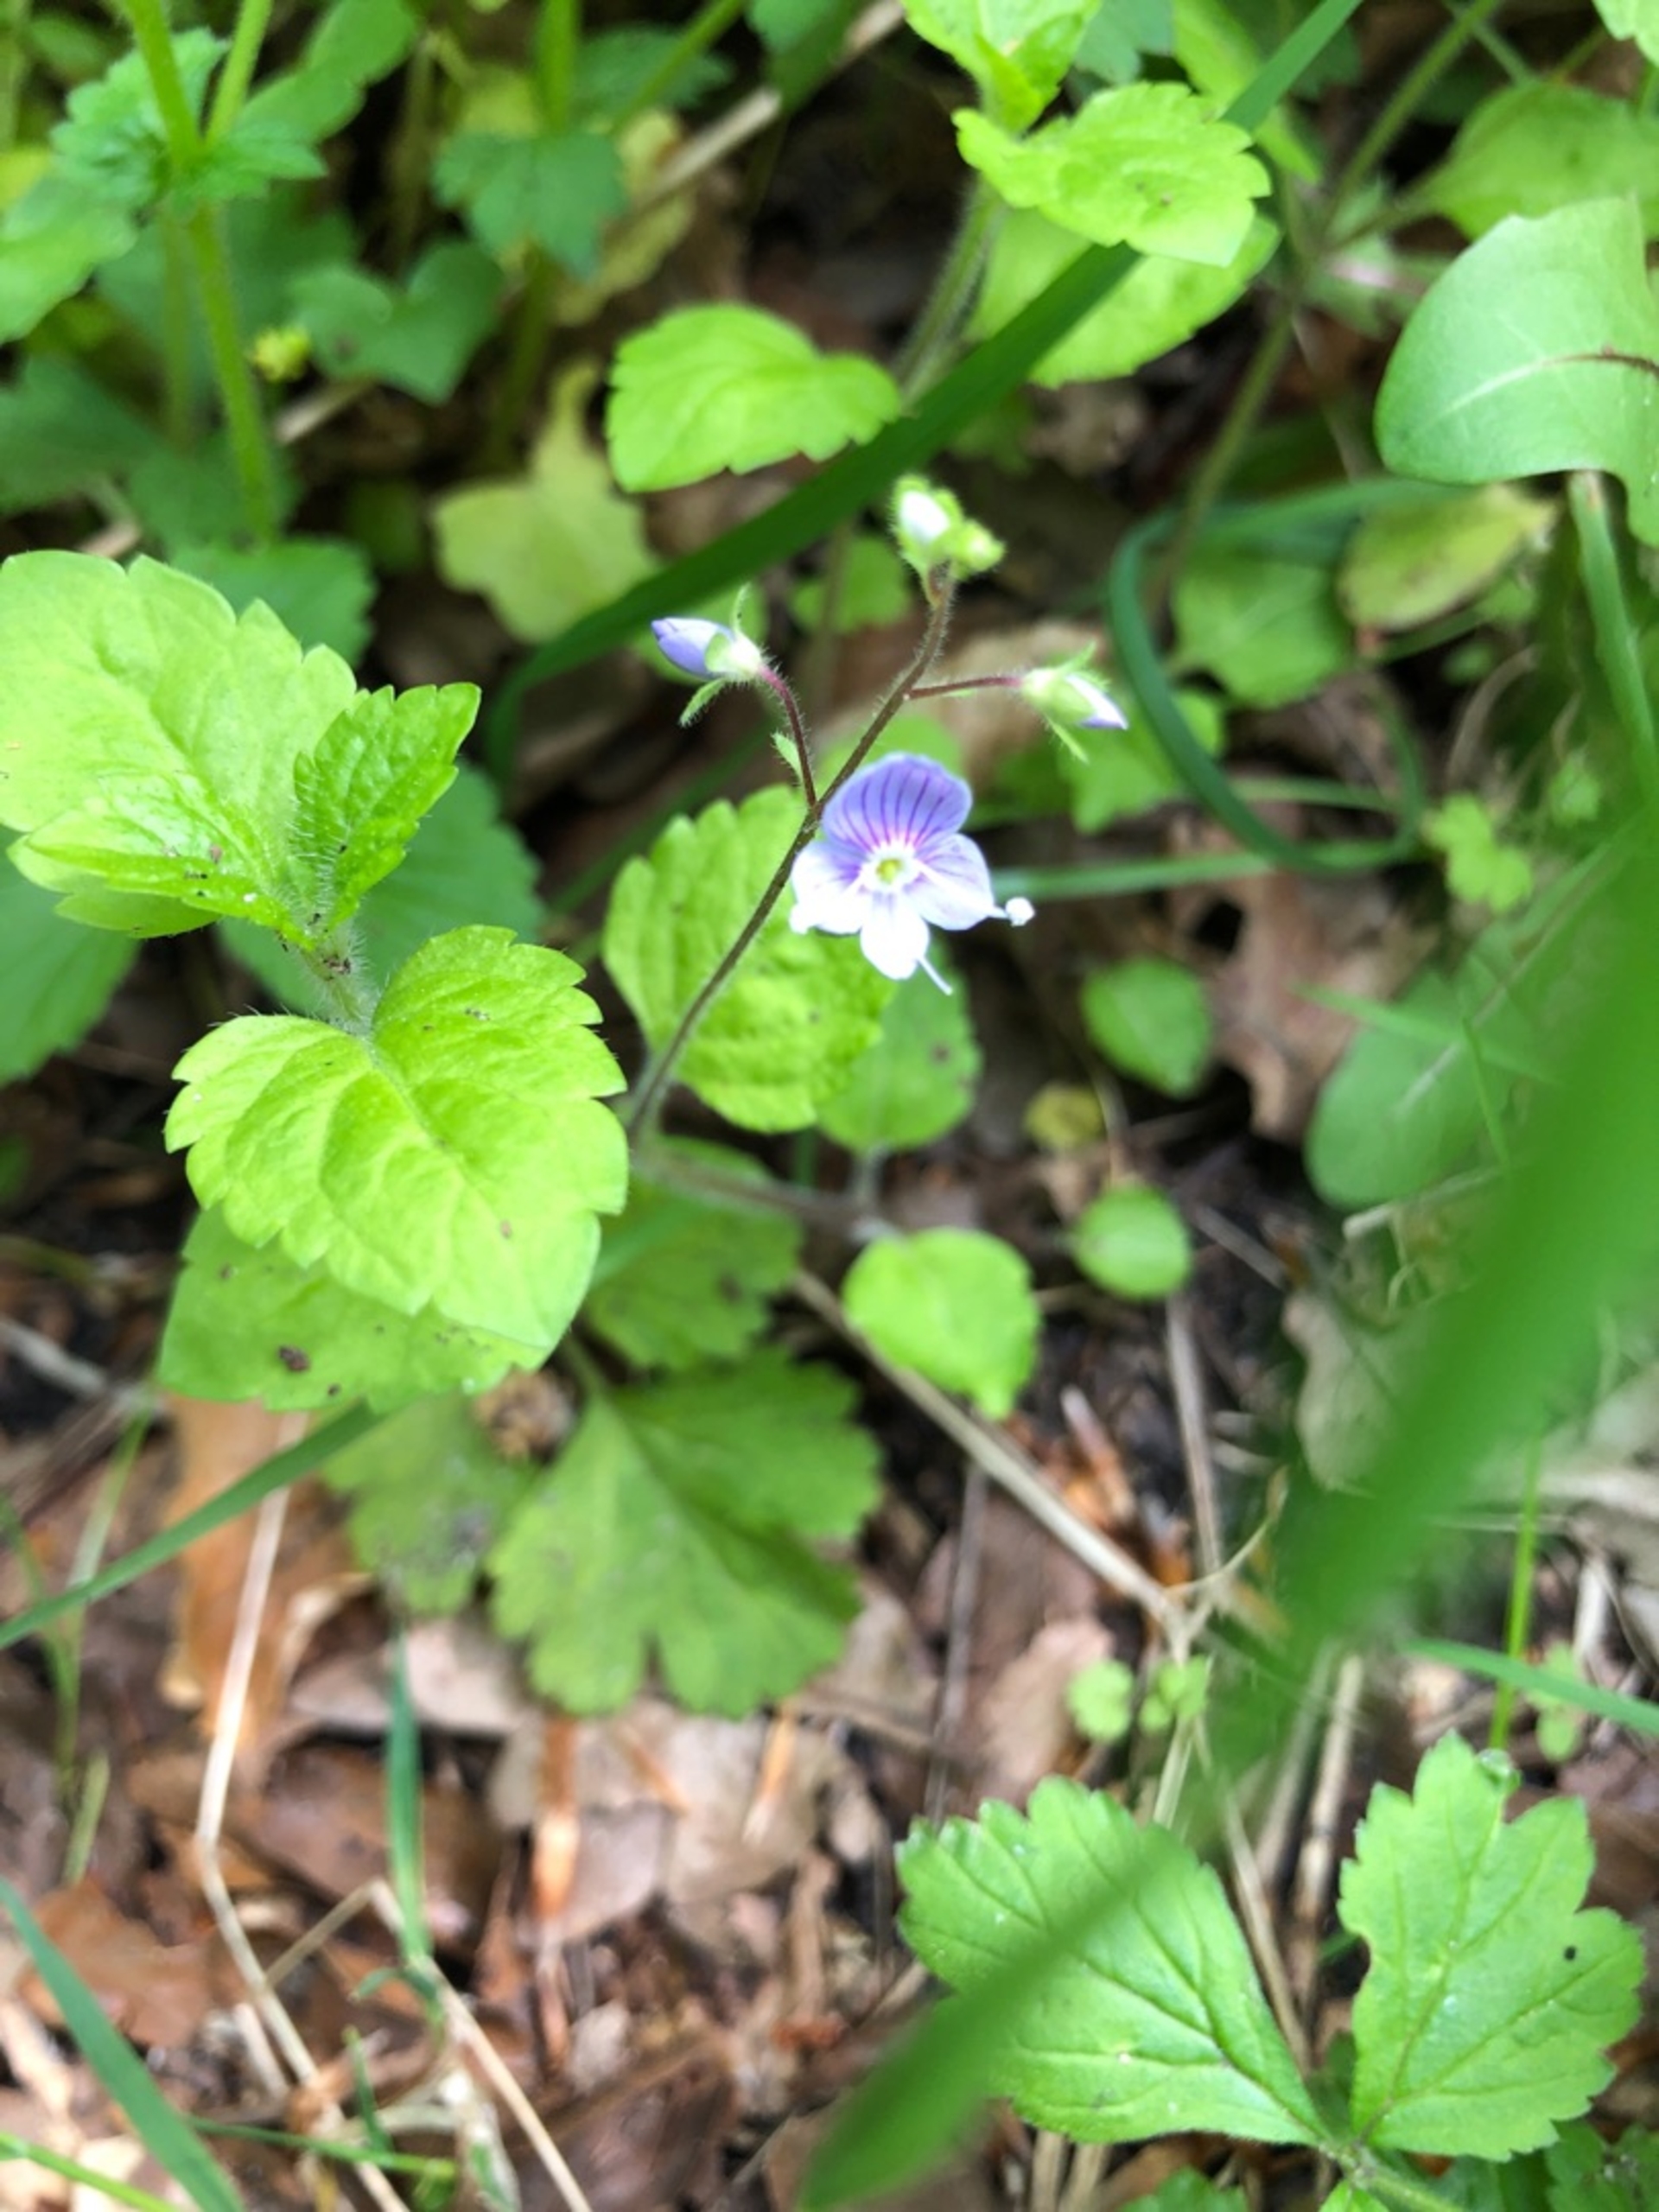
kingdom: Plantae
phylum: Tracheophyta
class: Magnoliopsida
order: Lamiales
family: Plantaginaceae
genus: Veronica
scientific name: Veronica montana
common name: Bjerg-ærenpris
